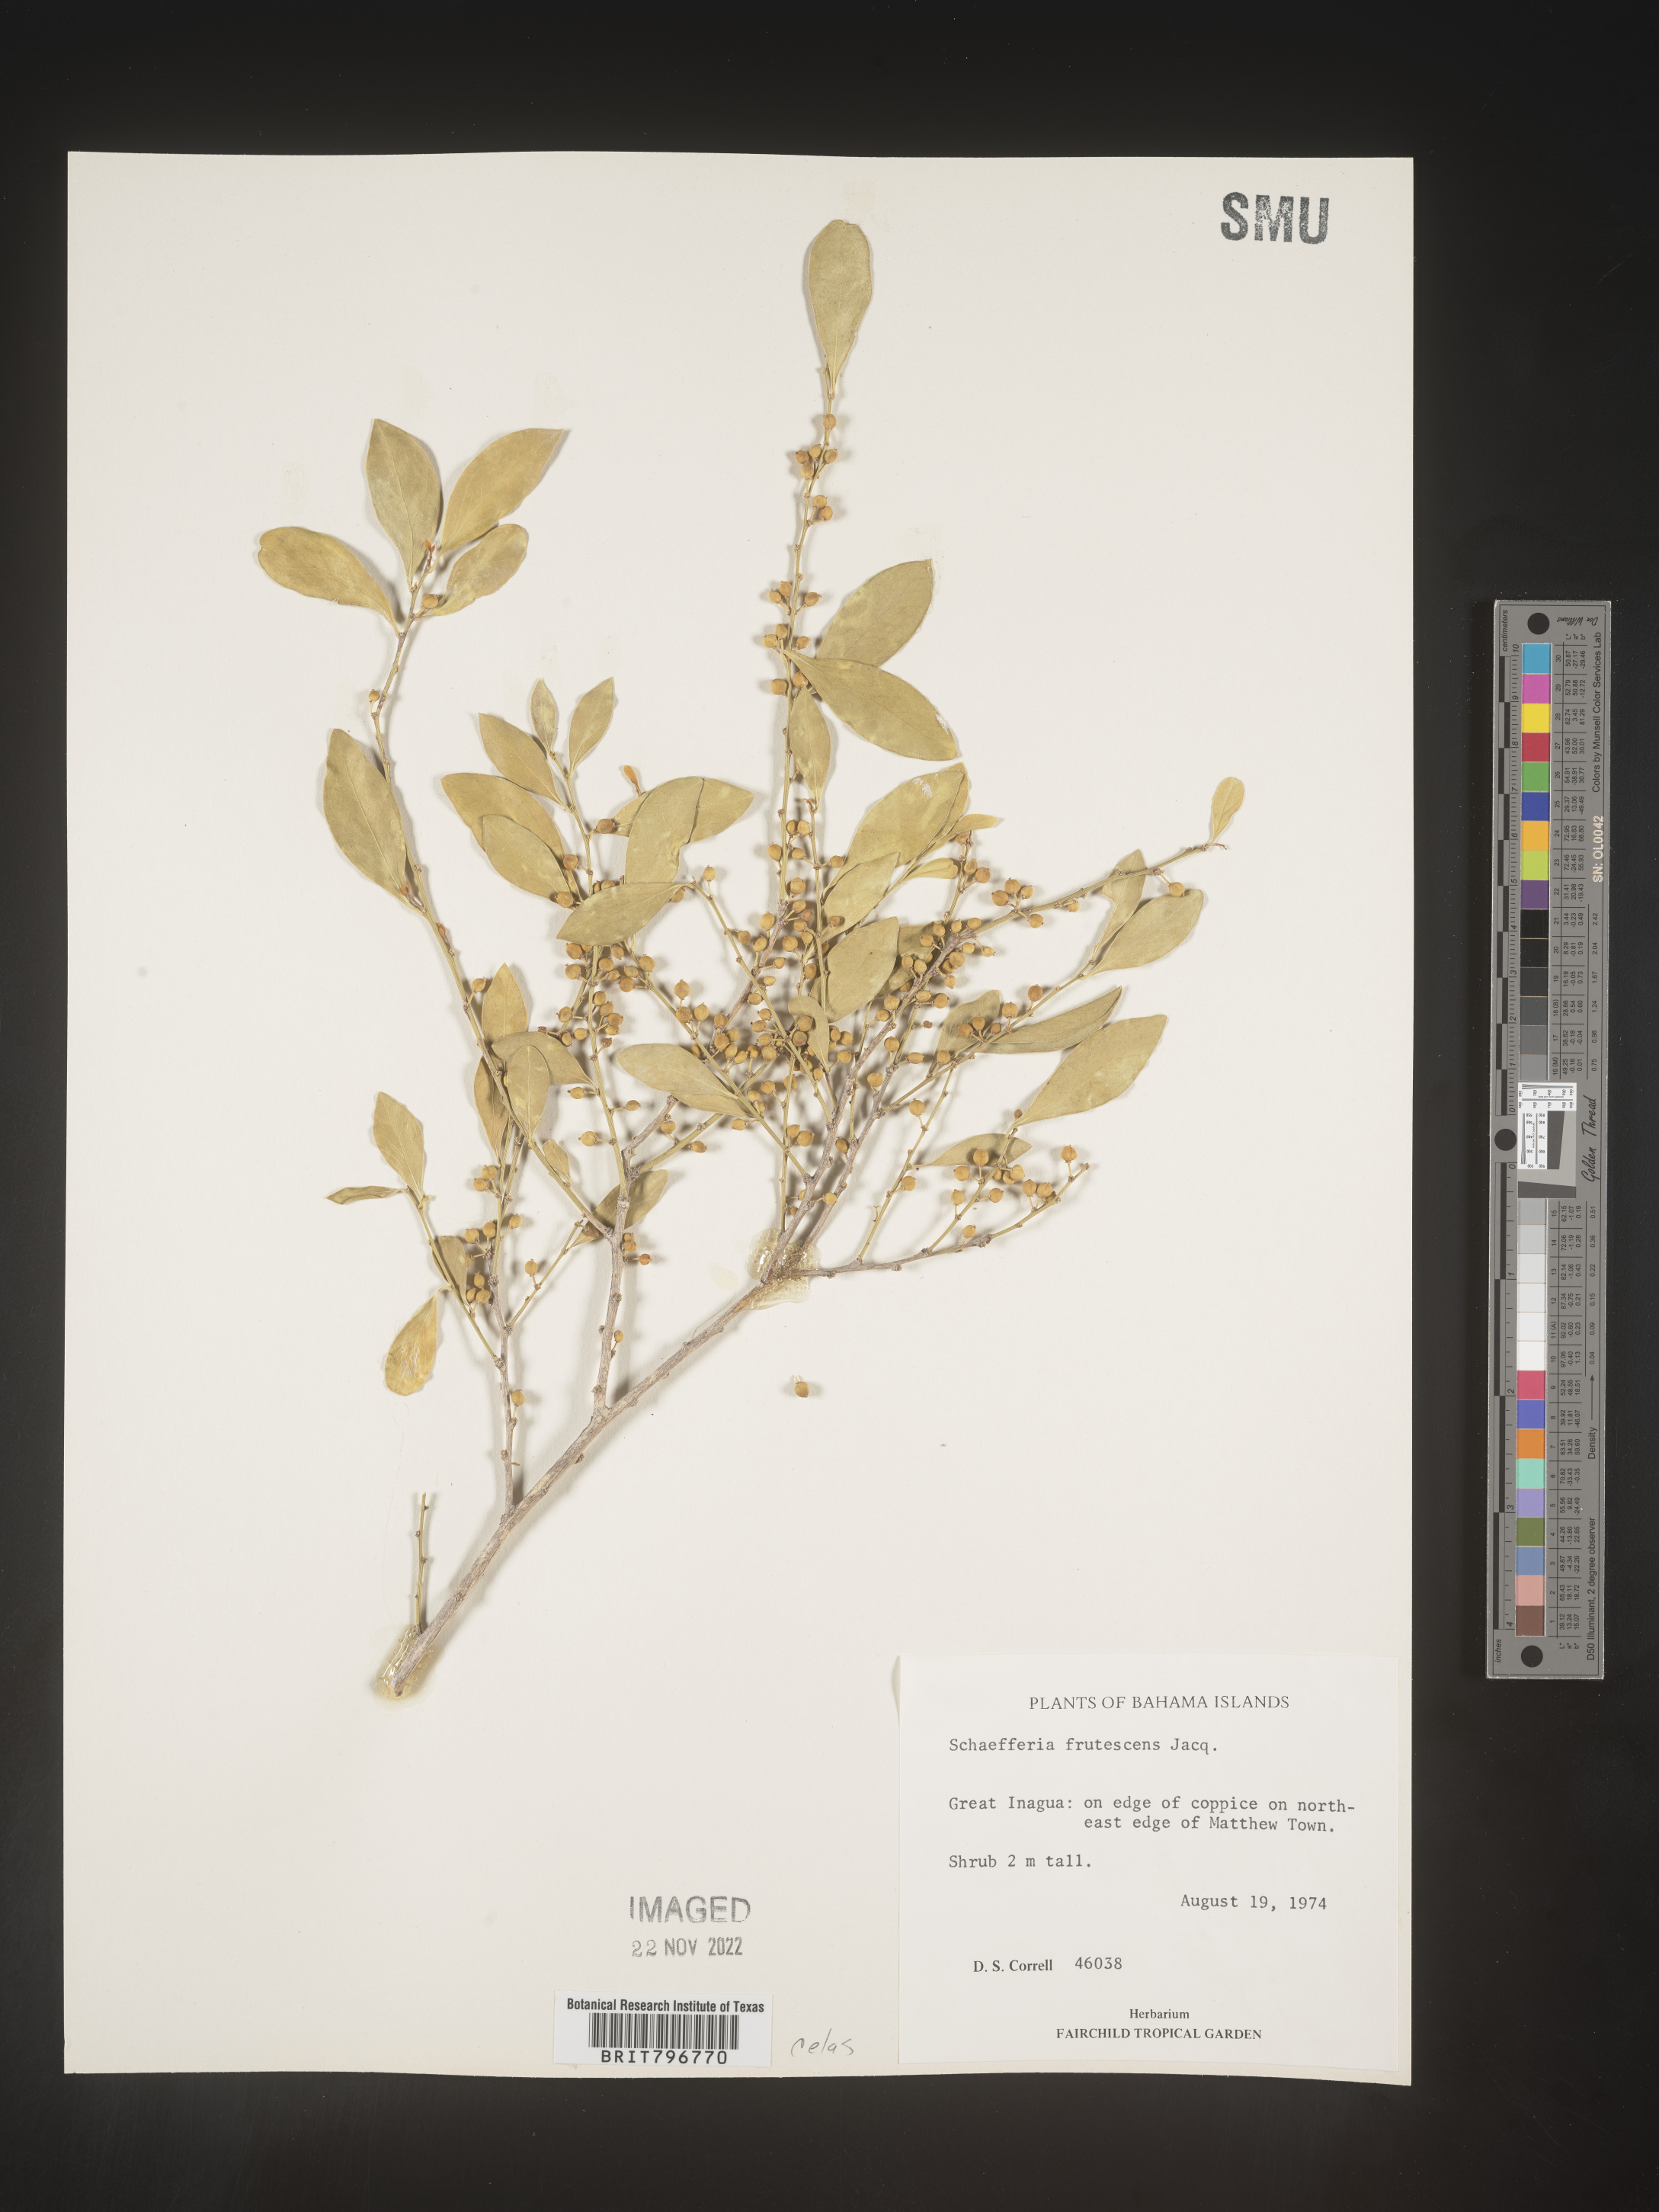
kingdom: Plantae
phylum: Tracheophyta
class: Magnoliopsida
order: Celastrales
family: Celastraceae
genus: Schaefferia
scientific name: Schaefferia
